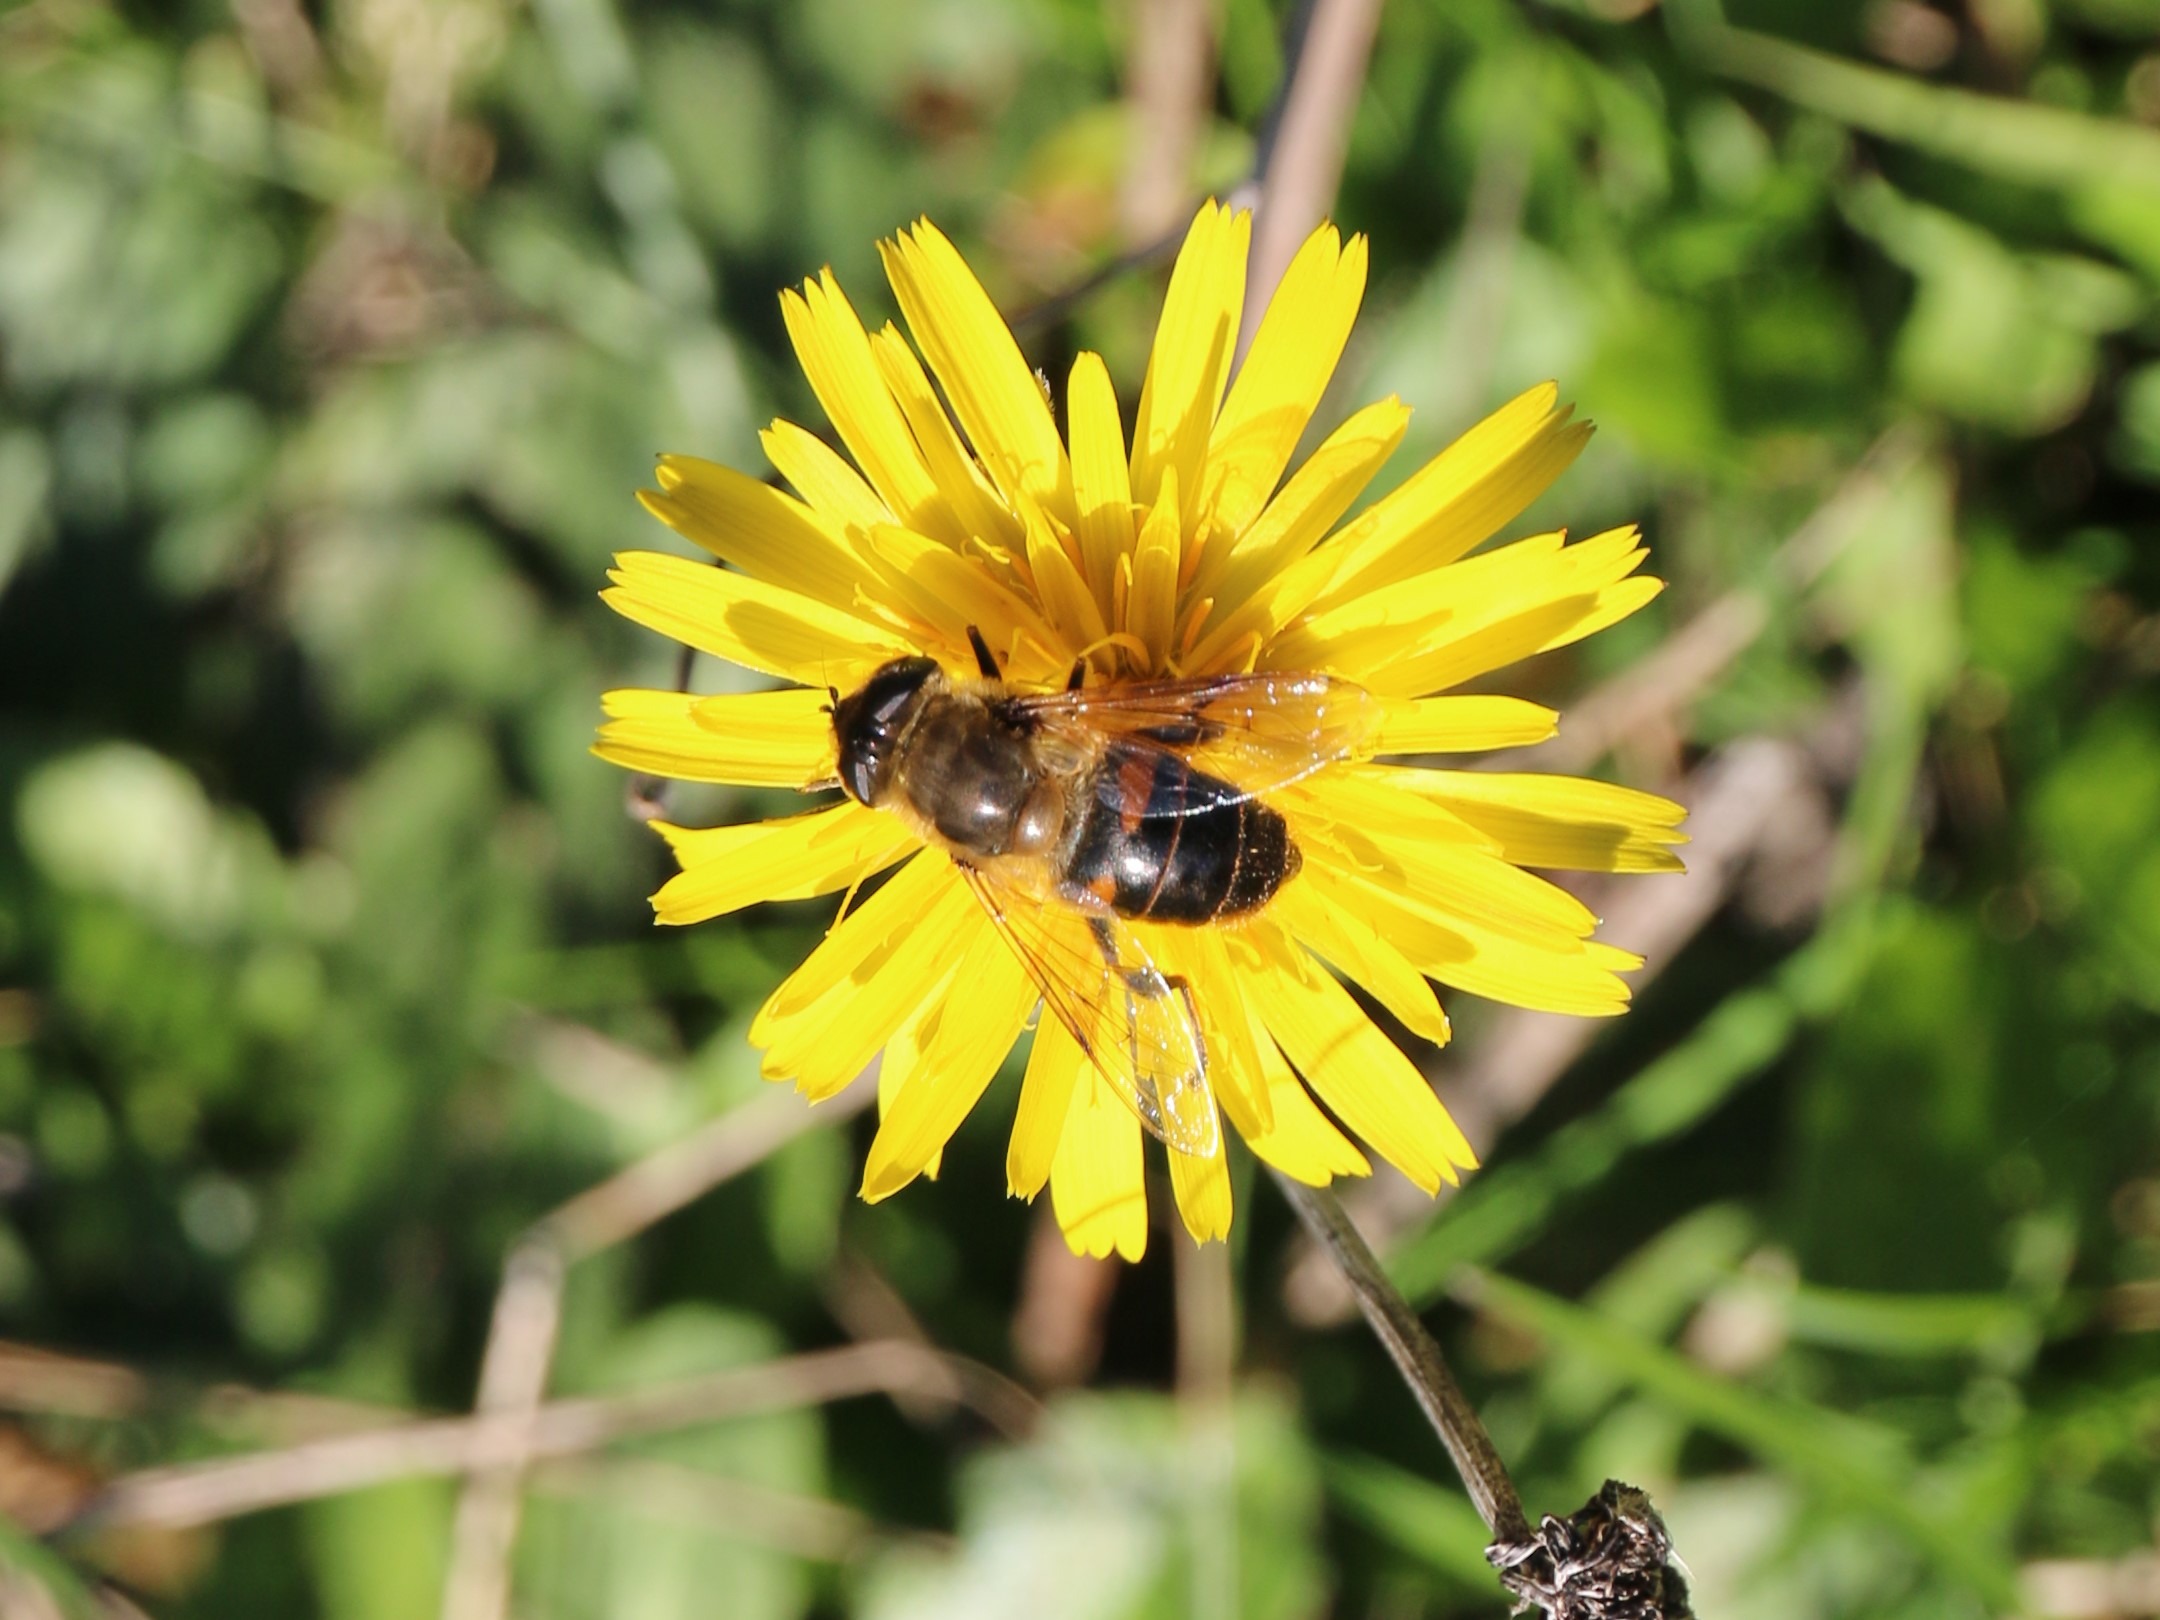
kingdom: Animalia
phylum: Arthropoda
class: Insecta
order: Diptera
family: Syrphidae
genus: Eristalis
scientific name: Eristalis tenax
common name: Droneflue
